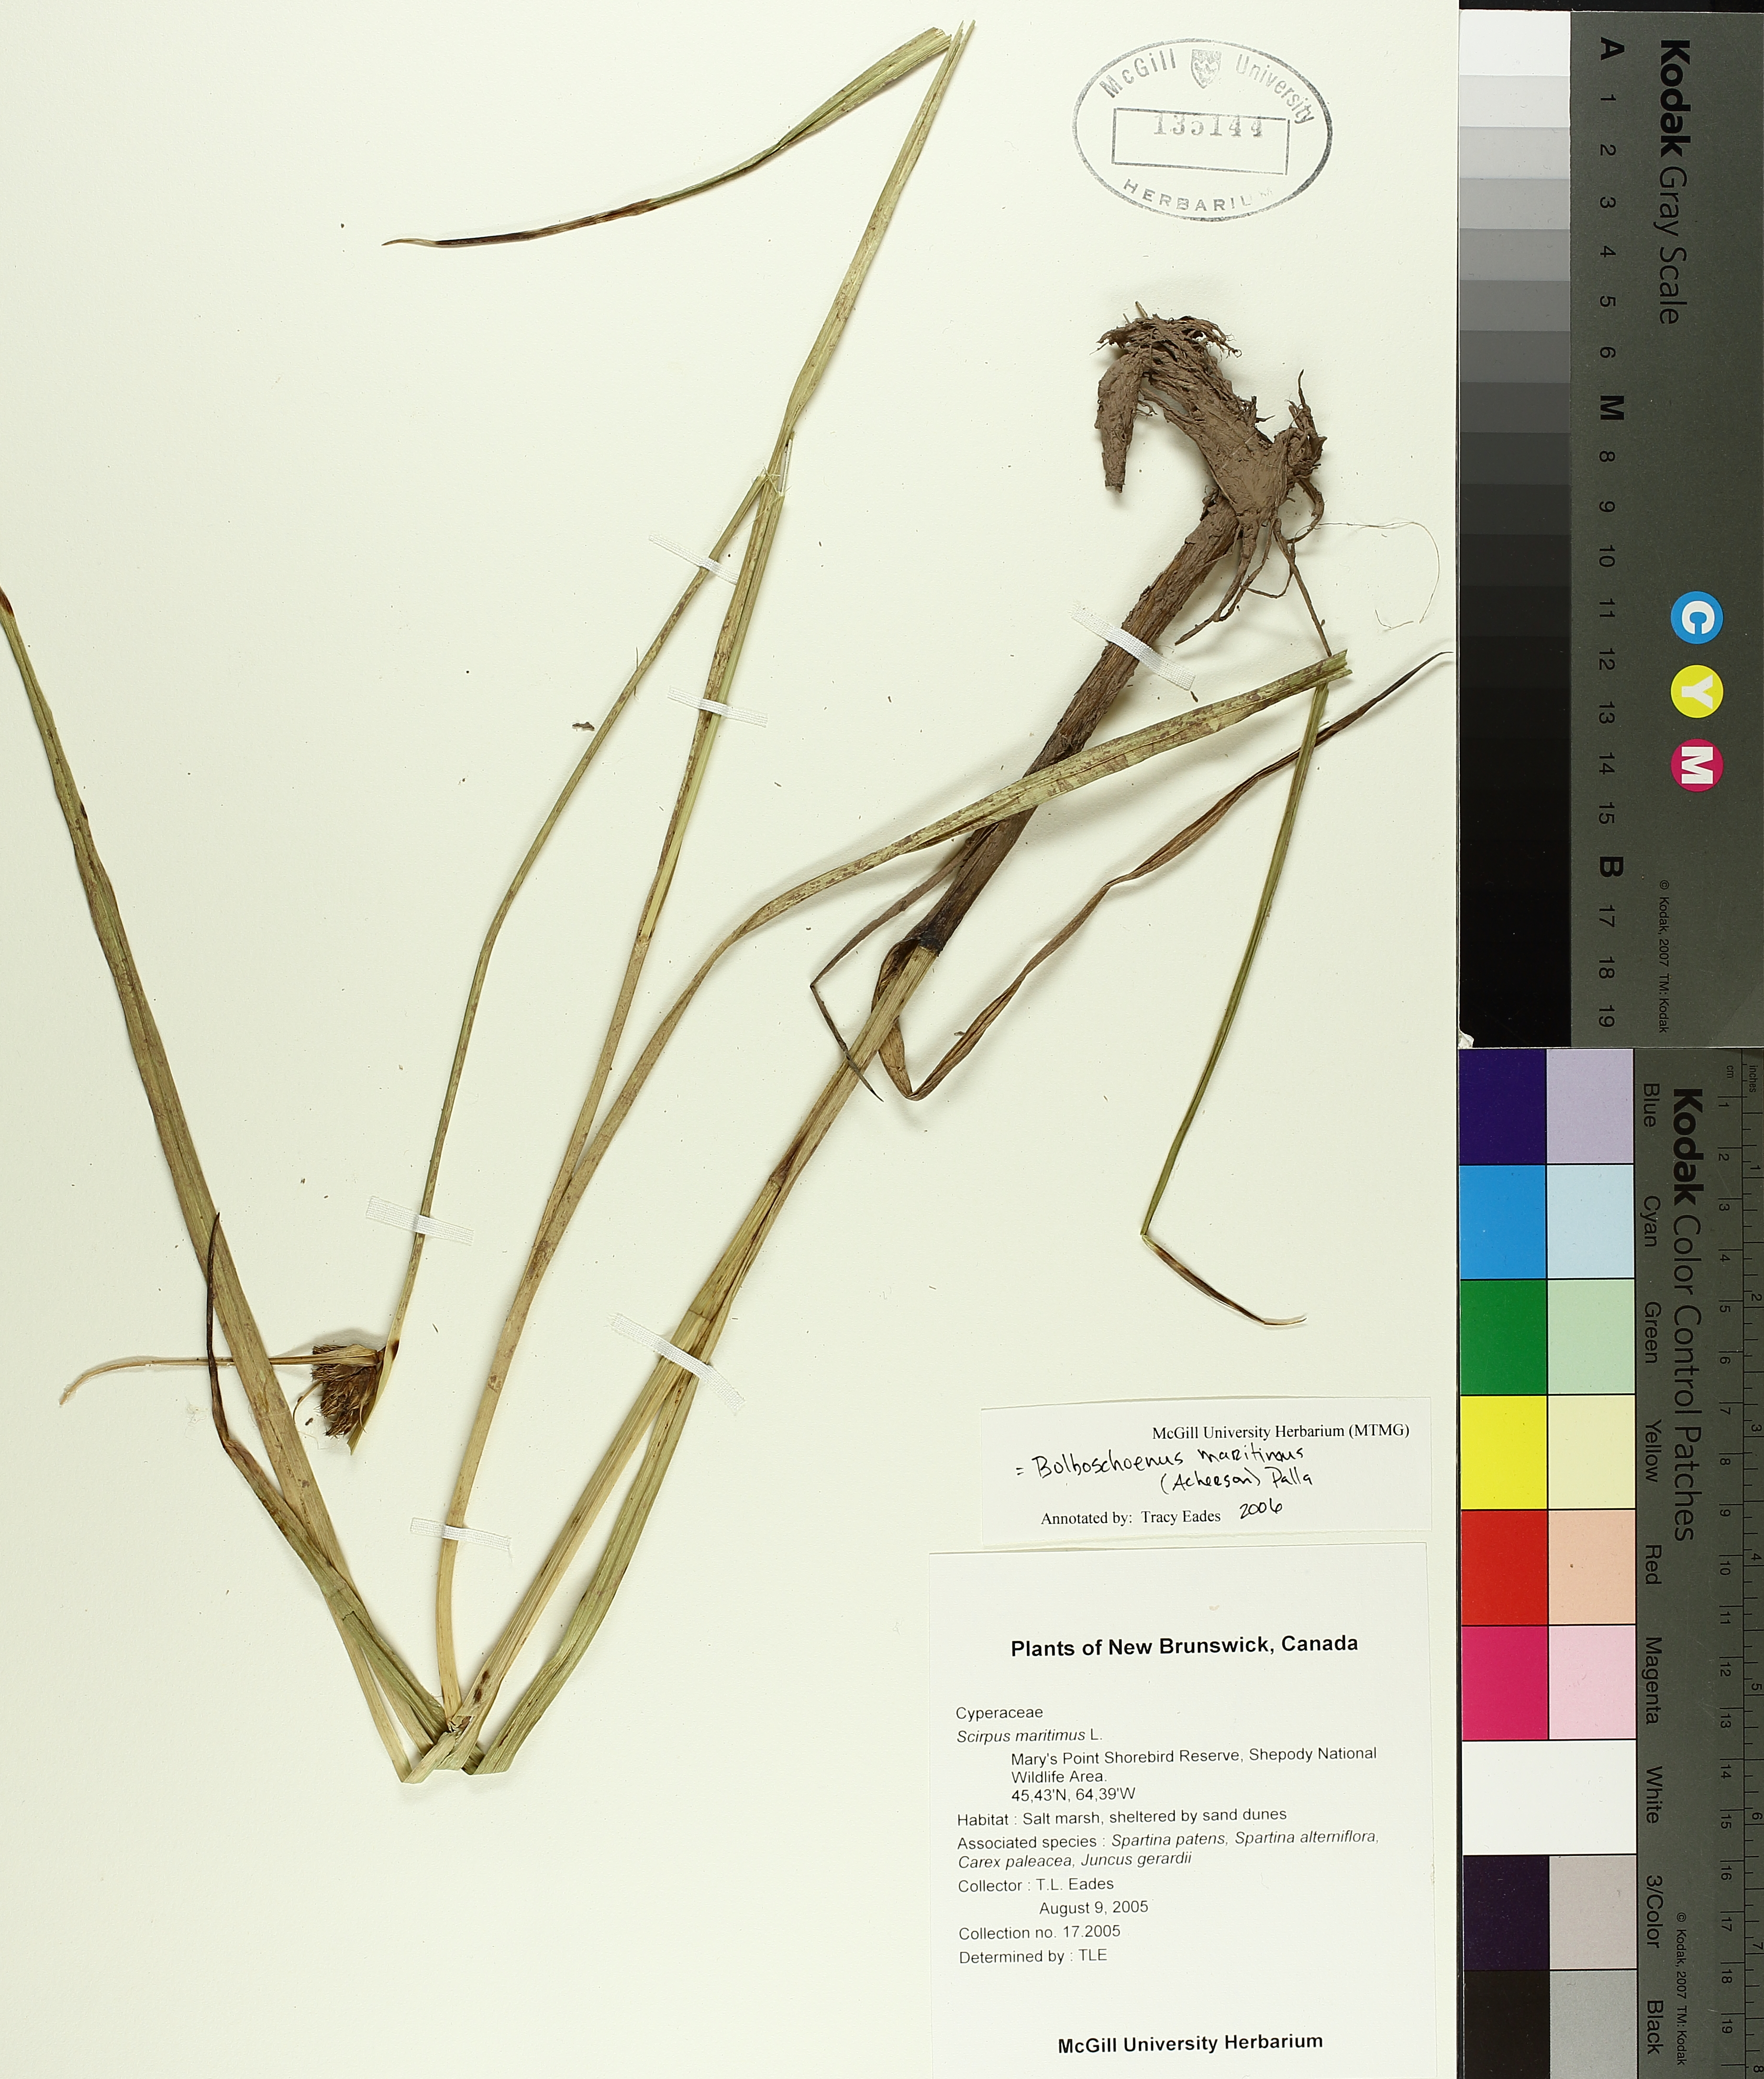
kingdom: Plantae
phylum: Tracheophyta
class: Liliopsida
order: Poales
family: Cyperaceae
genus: Bolboschoenus
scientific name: Bolboschoenus maritimus
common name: Sea club-rush
